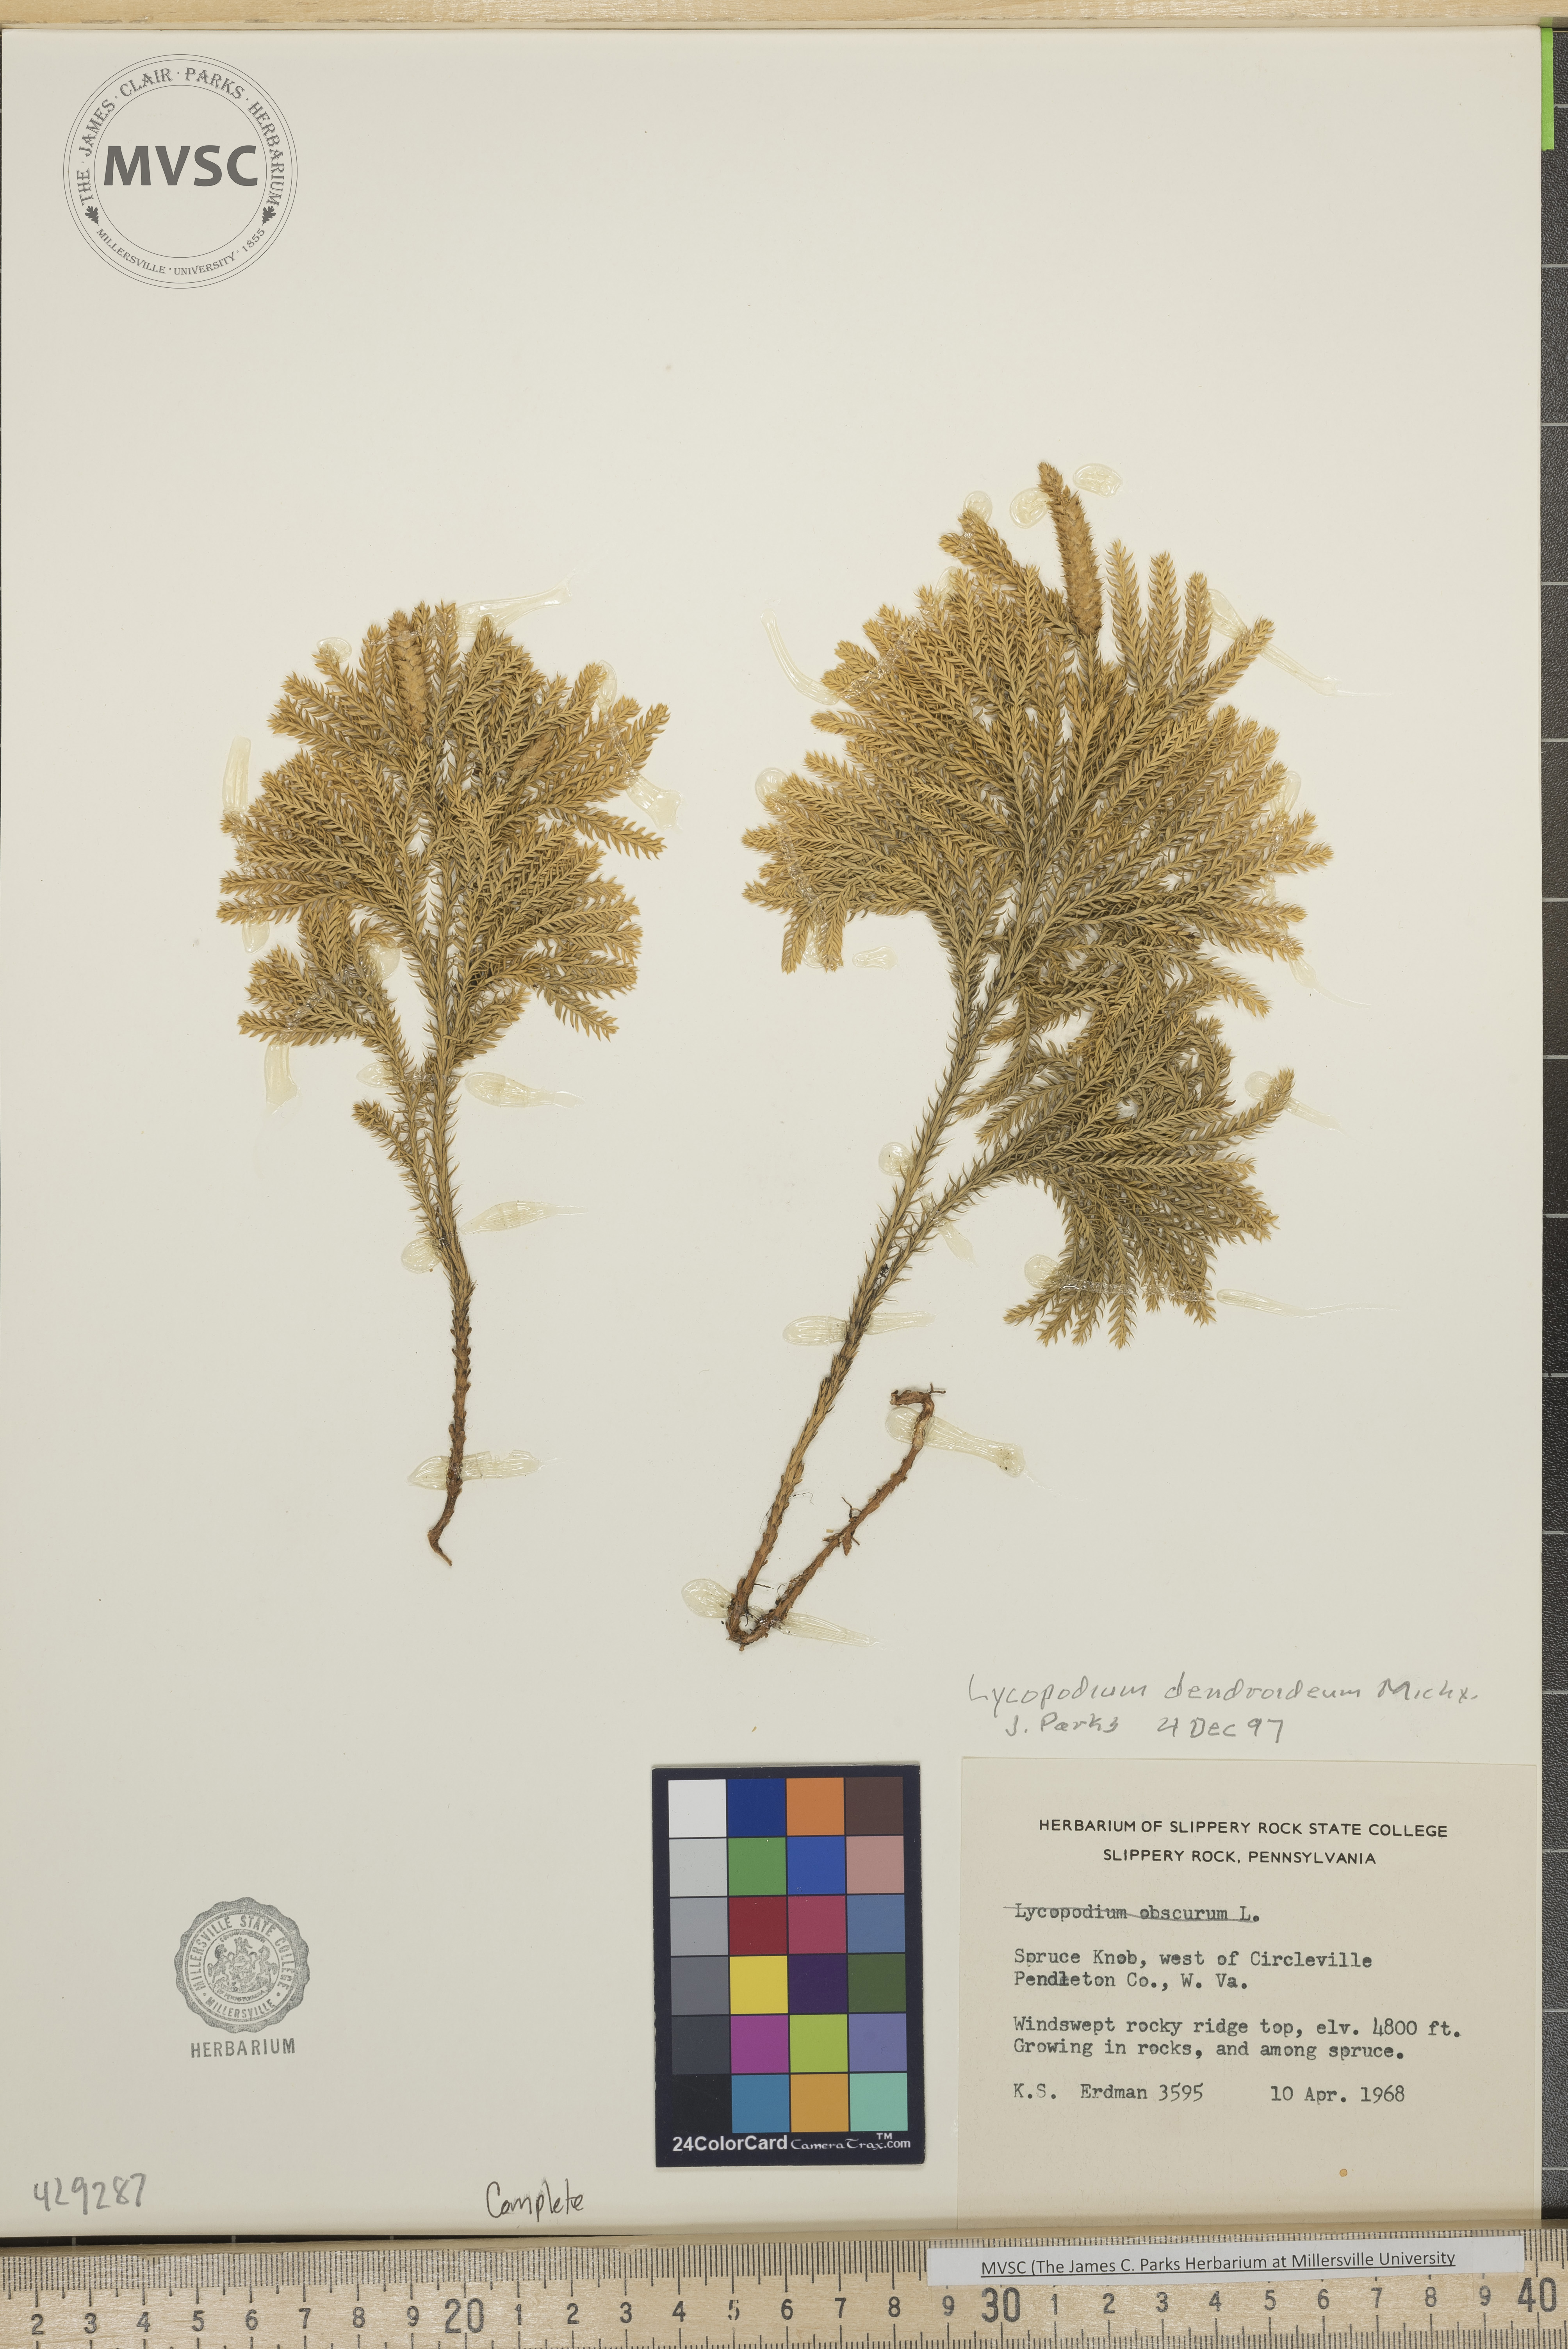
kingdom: Plantae
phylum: Tracheophyta
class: Lycopodiopsida
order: Lycopodiales
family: Lycopodiaceae
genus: Dendrolycopodium
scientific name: Dendrolycopodium dendroideum
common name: Northern tree-clubmoss
